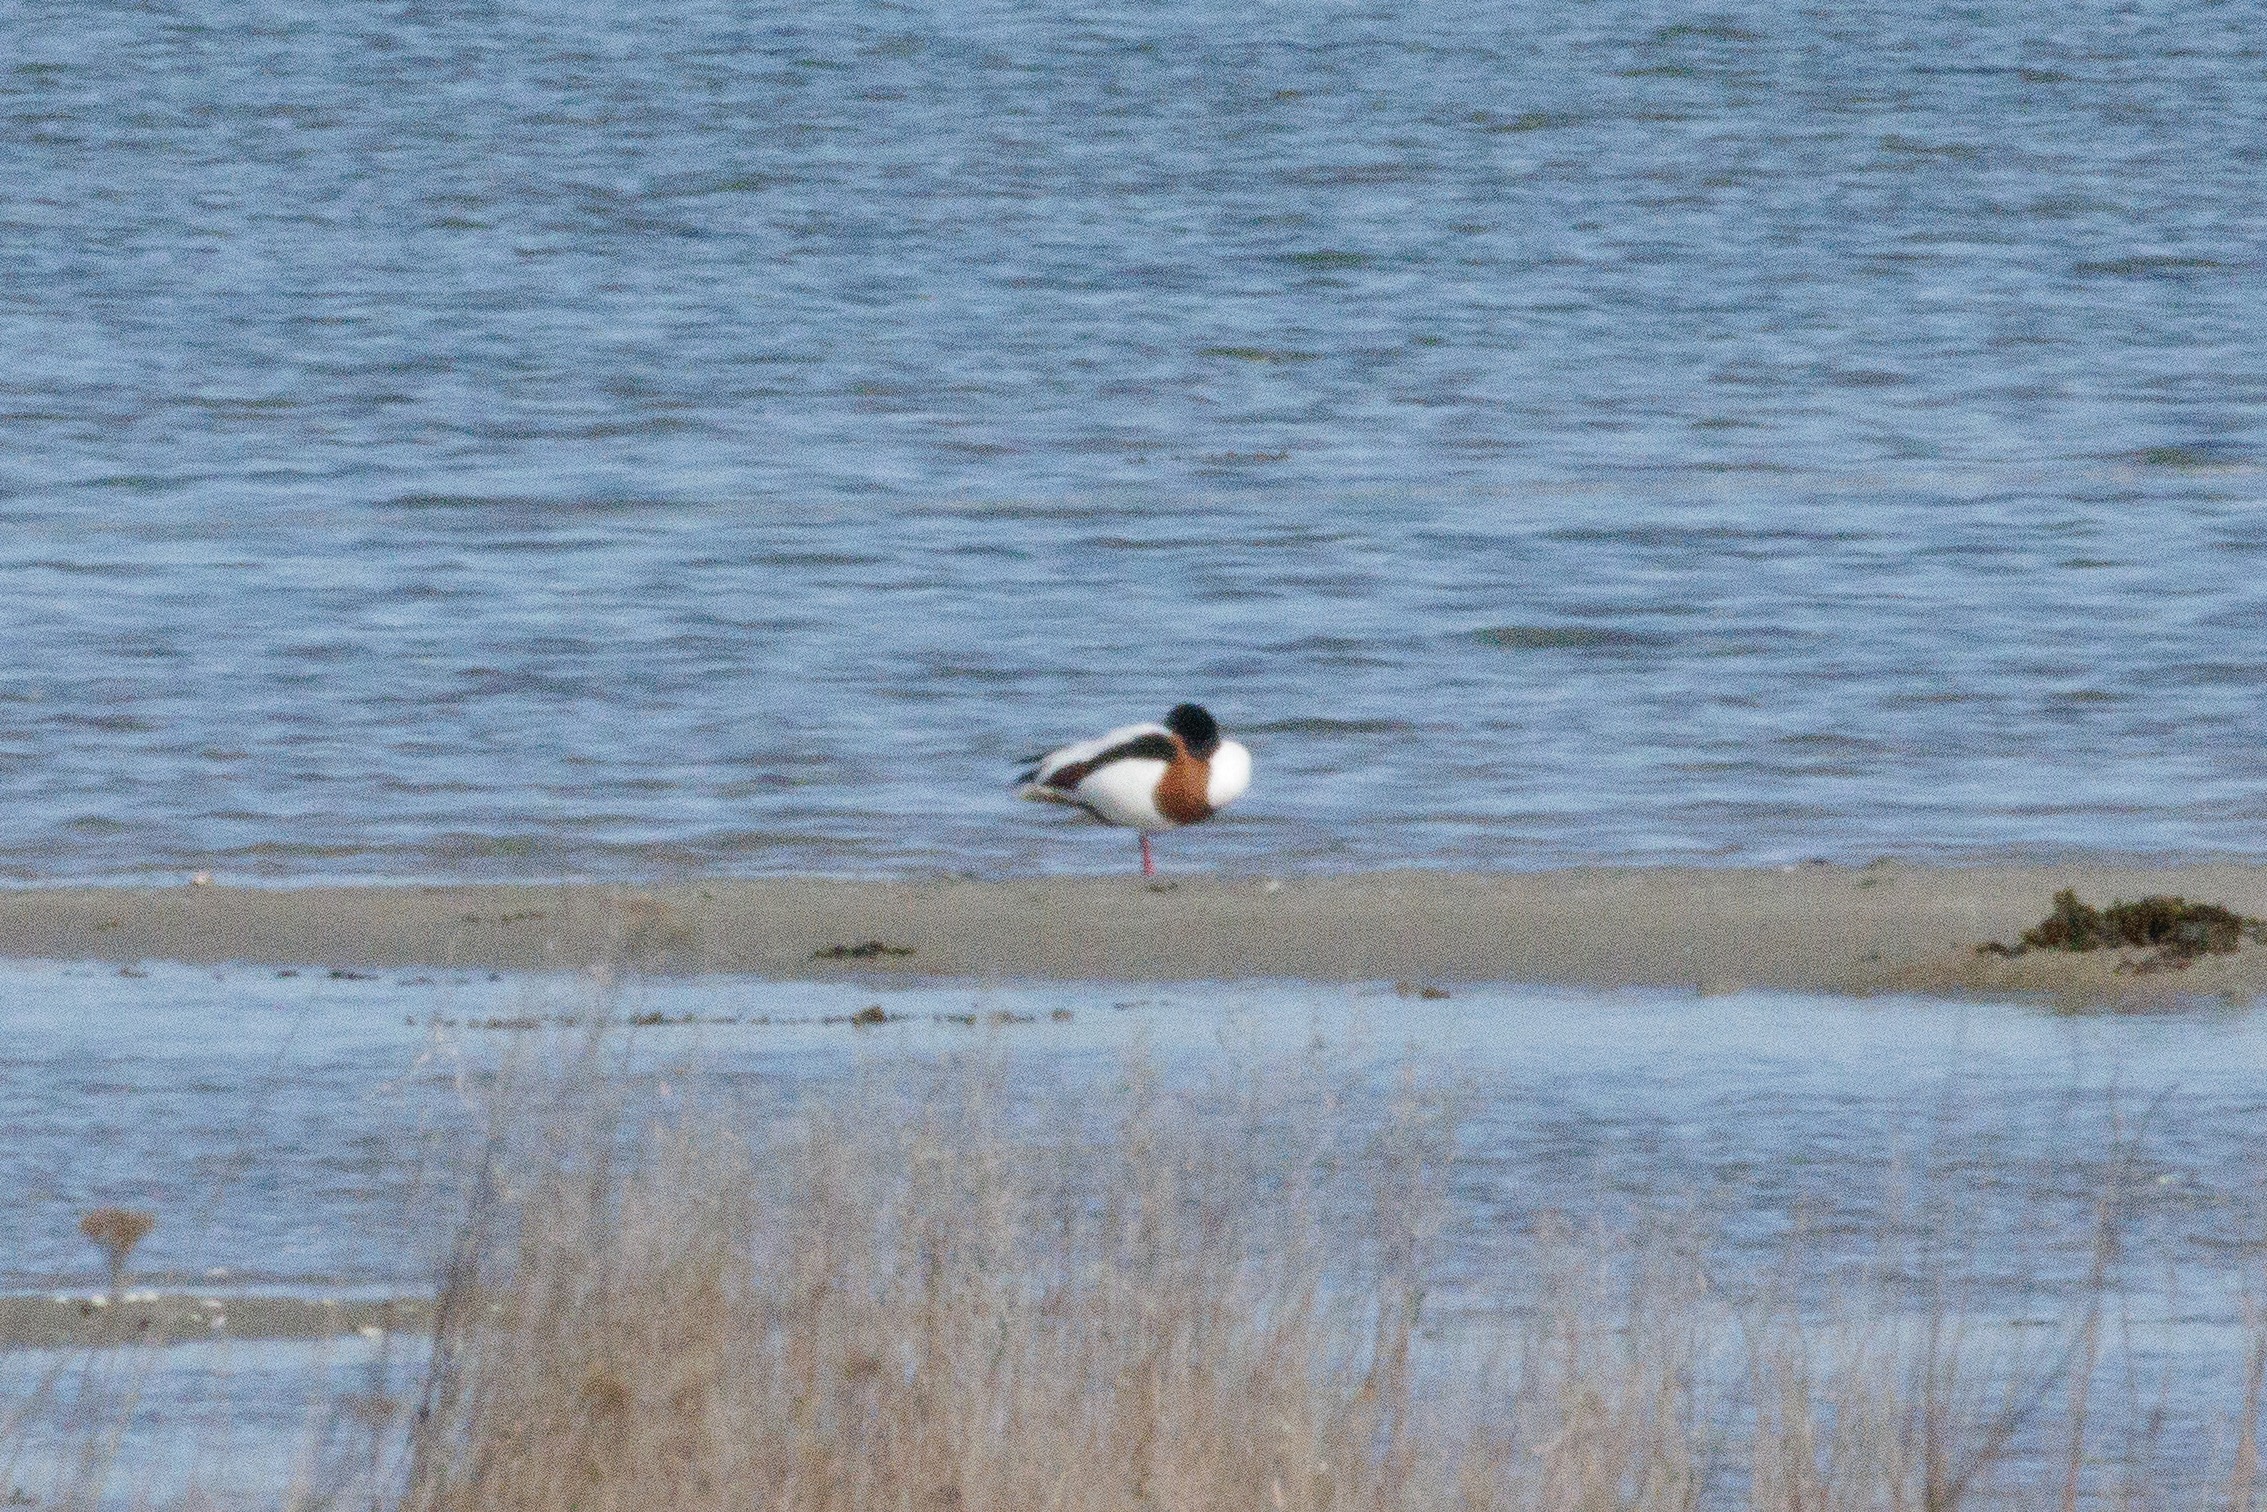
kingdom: Animalia
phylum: Chordata
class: Aves
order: Anseriformes
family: Anatidae
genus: Tadorna
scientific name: Tadorna tadorna
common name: Gravand
